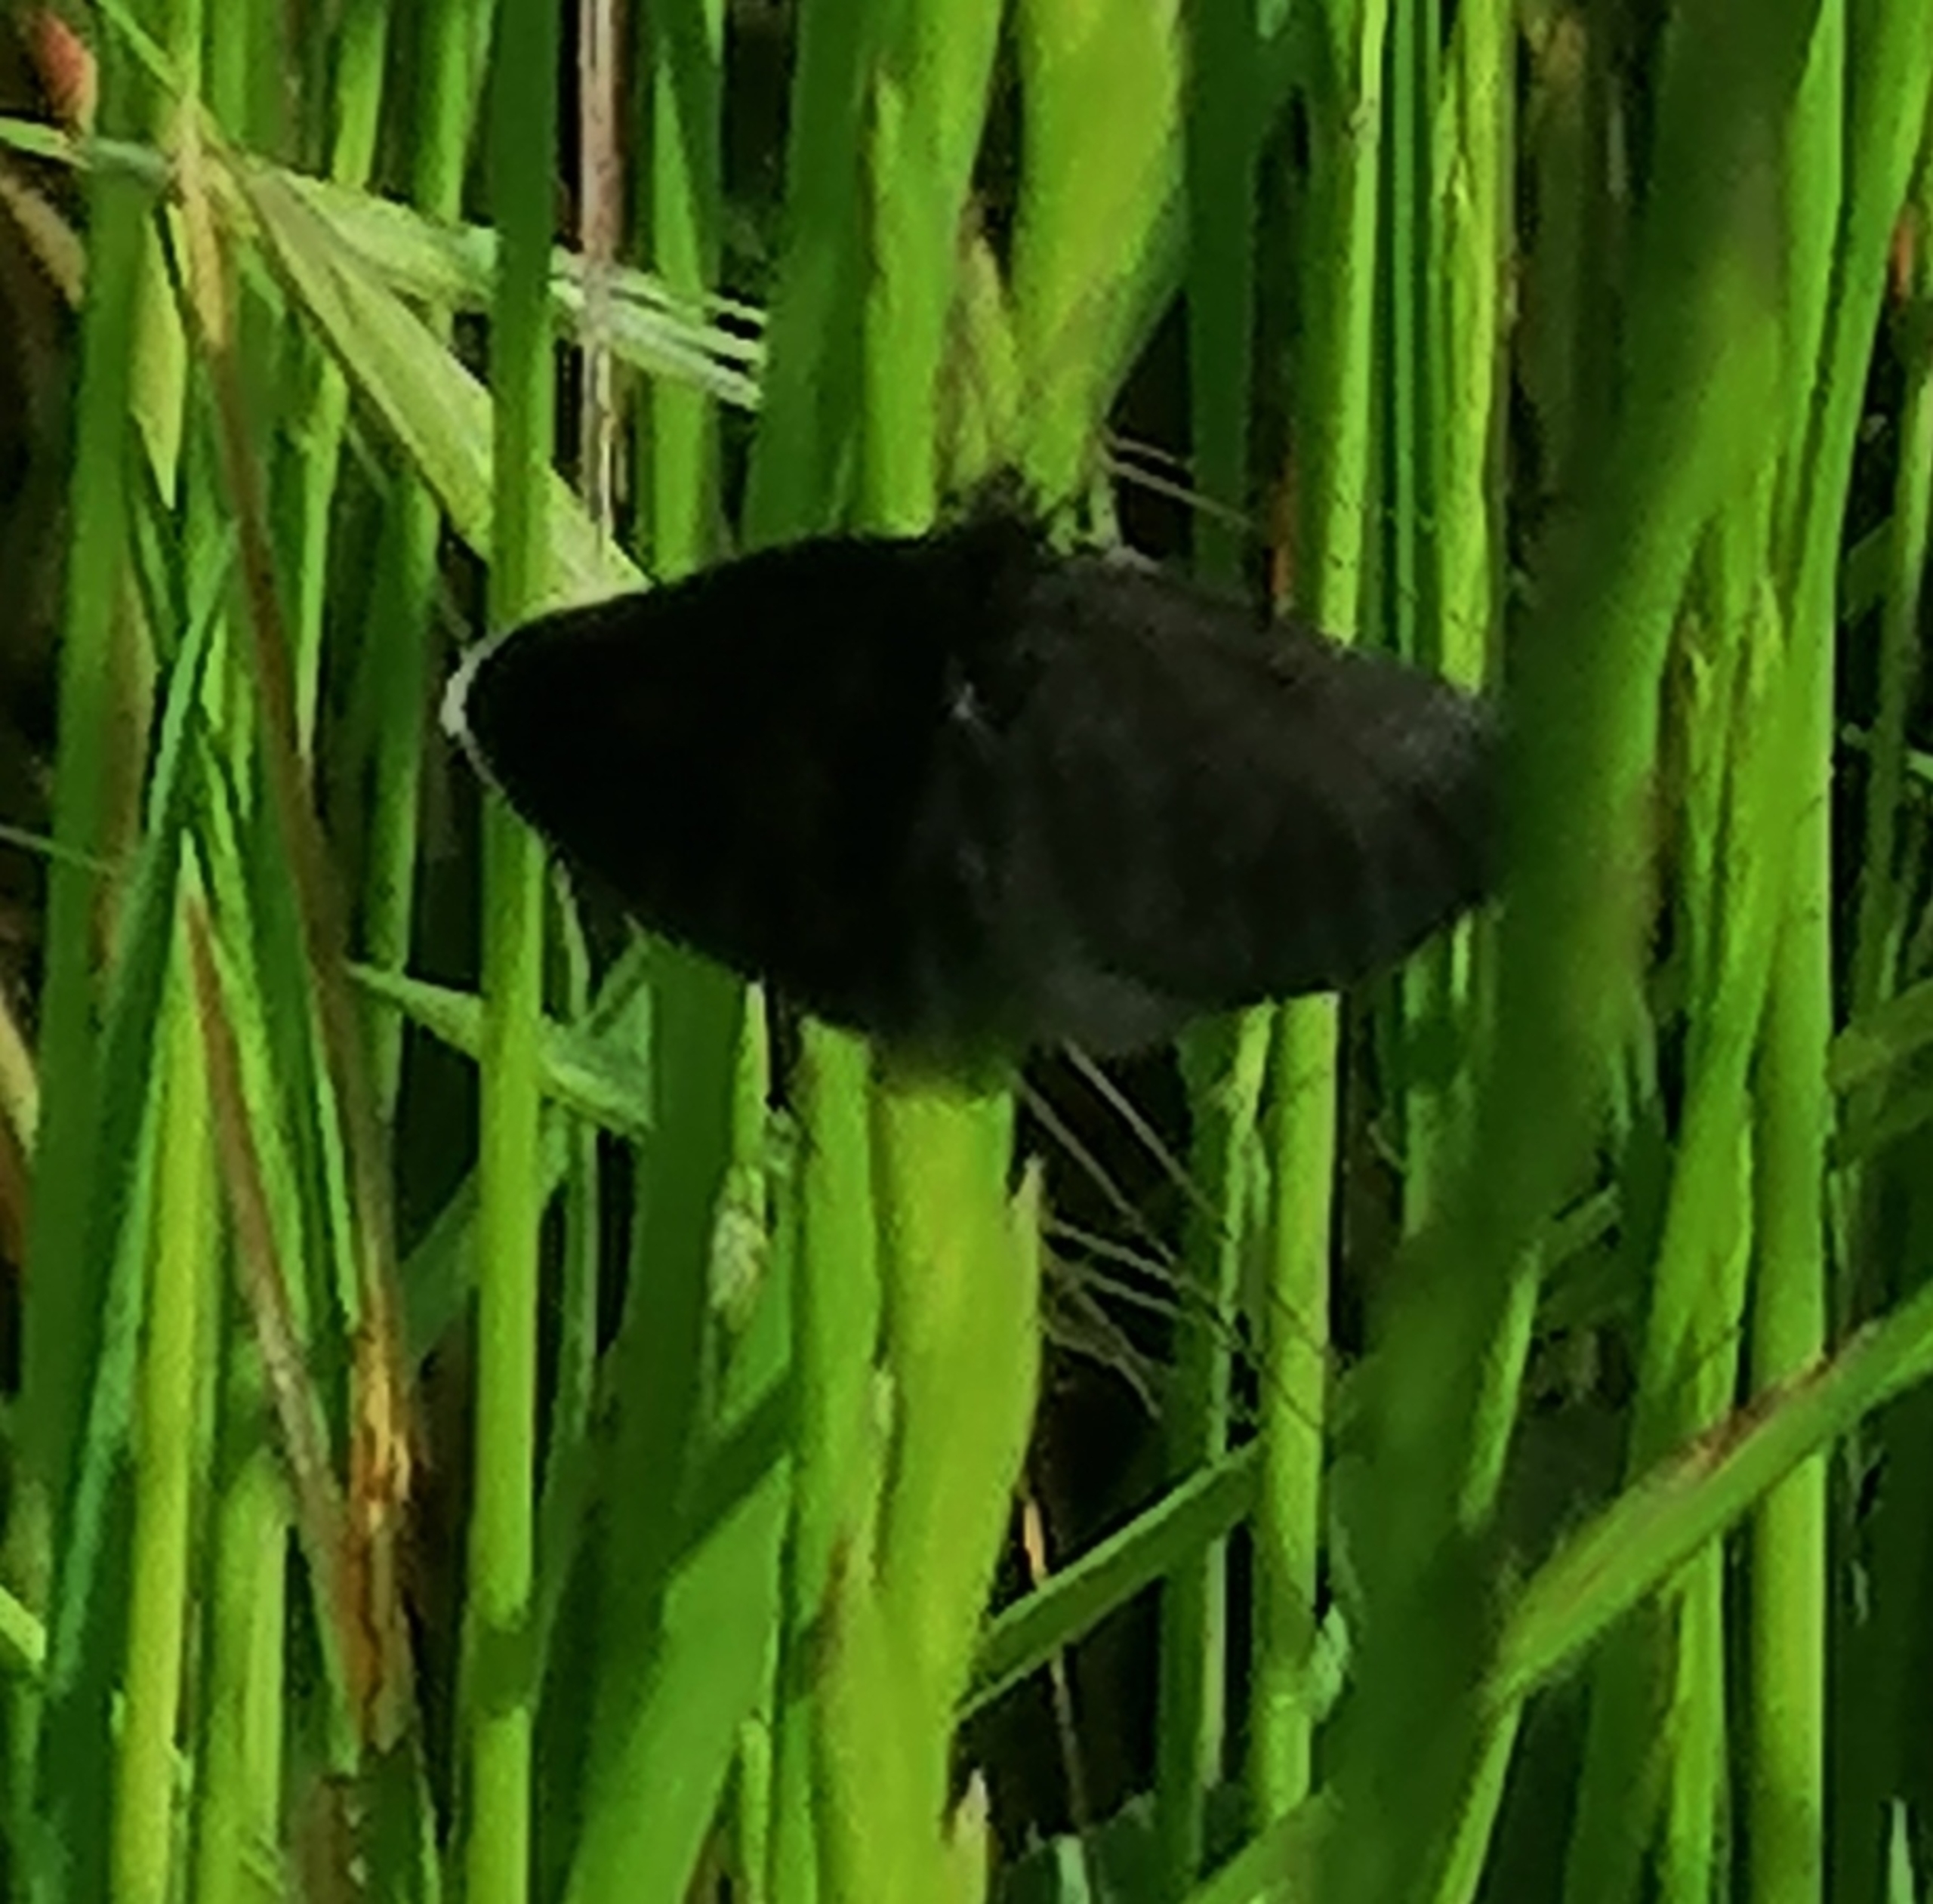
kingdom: Animalia
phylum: Arthropoda
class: Insecta
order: Lepidoptera
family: Geometridae
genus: Odezia
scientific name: Odezia atrata
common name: Sort måler
